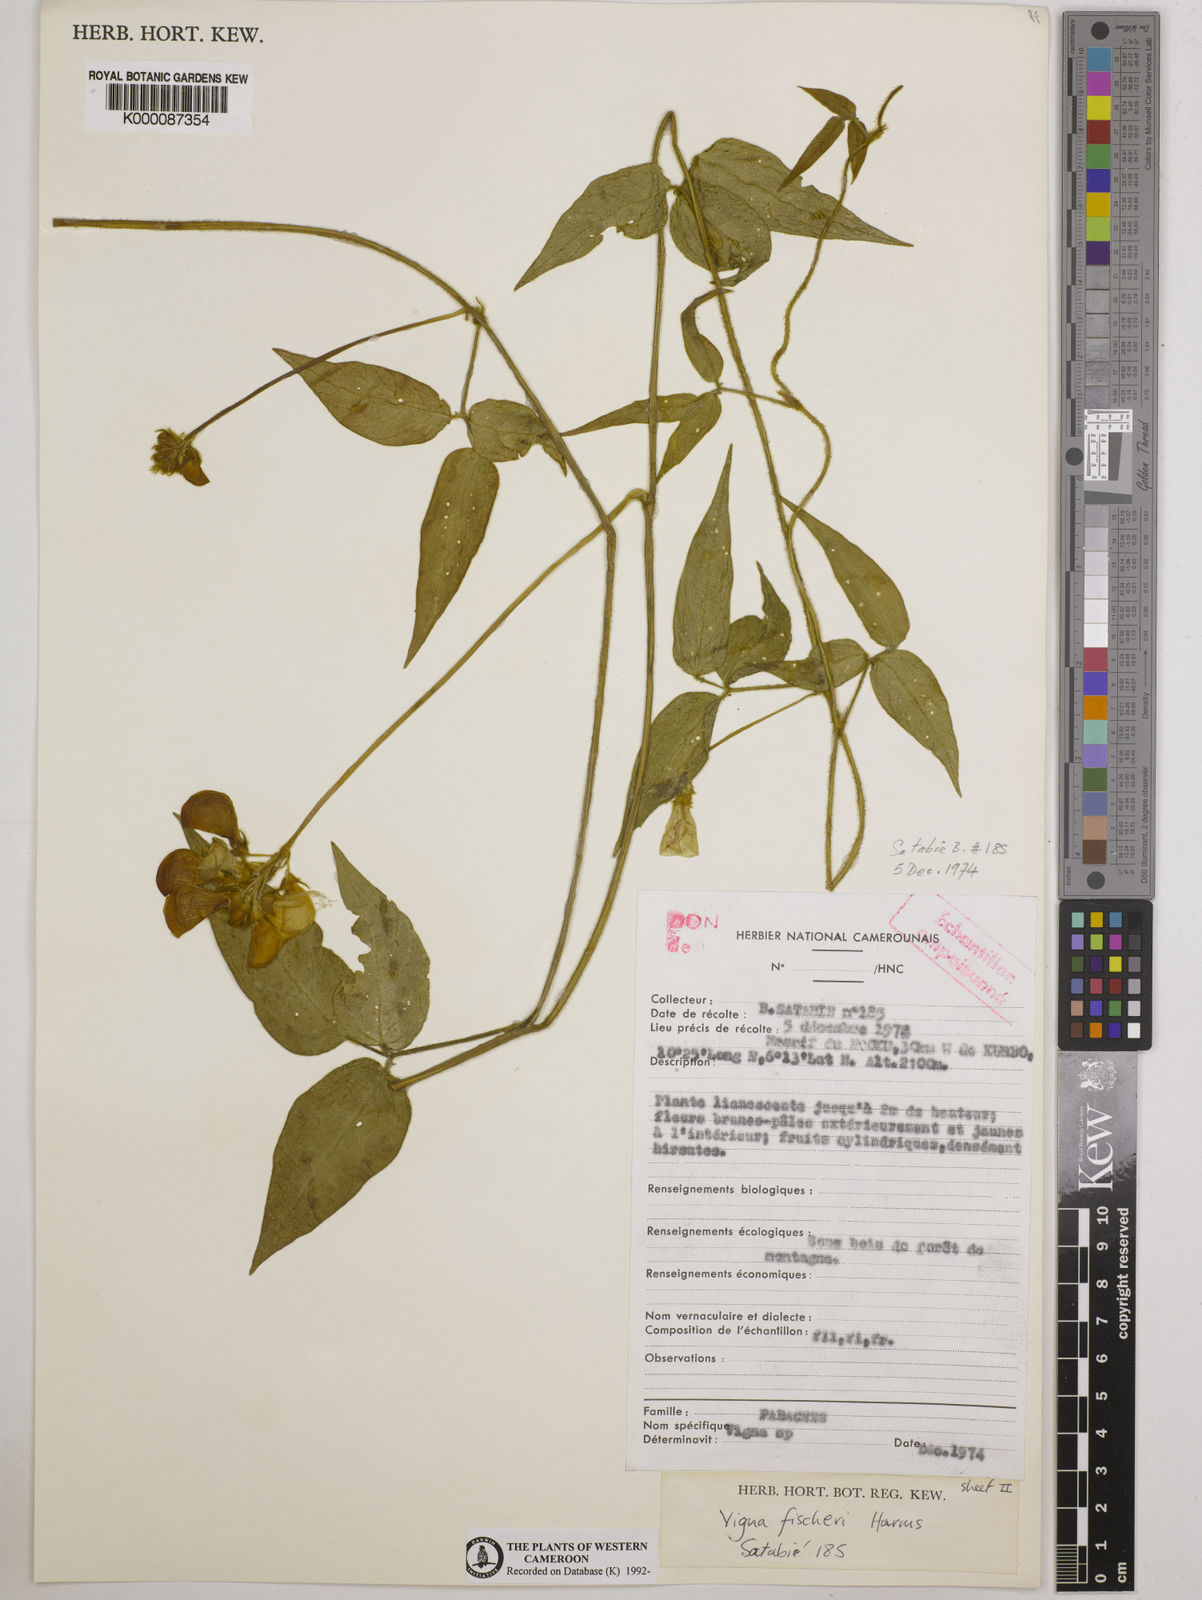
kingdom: Plantae
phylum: Tracheophyta
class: Magnoliopsida
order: Fabales
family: Fabaceae
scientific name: Fabaceae
